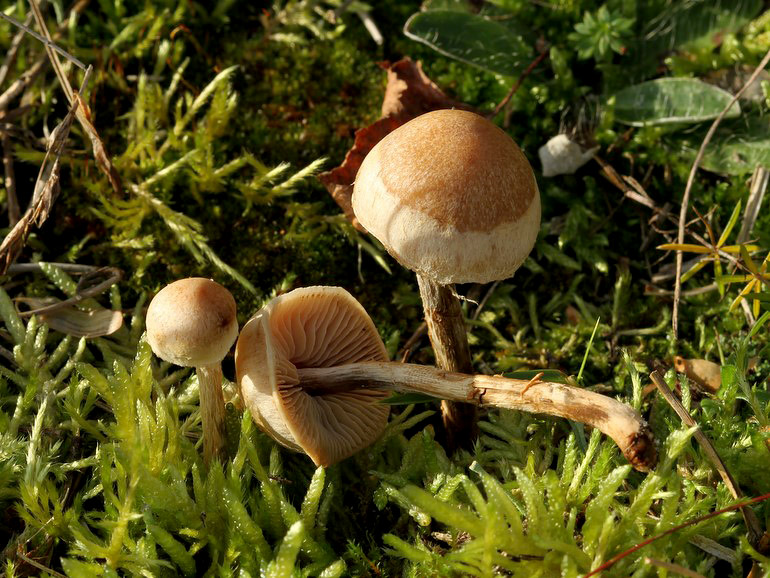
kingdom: Fungi
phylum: Basidiomycota
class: Agaricomycetes
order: Agaricales
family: Hymenogastraceae
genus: Hebeloma
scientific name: Hebeloma mesophaeum
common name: lerbrun tåreblad
